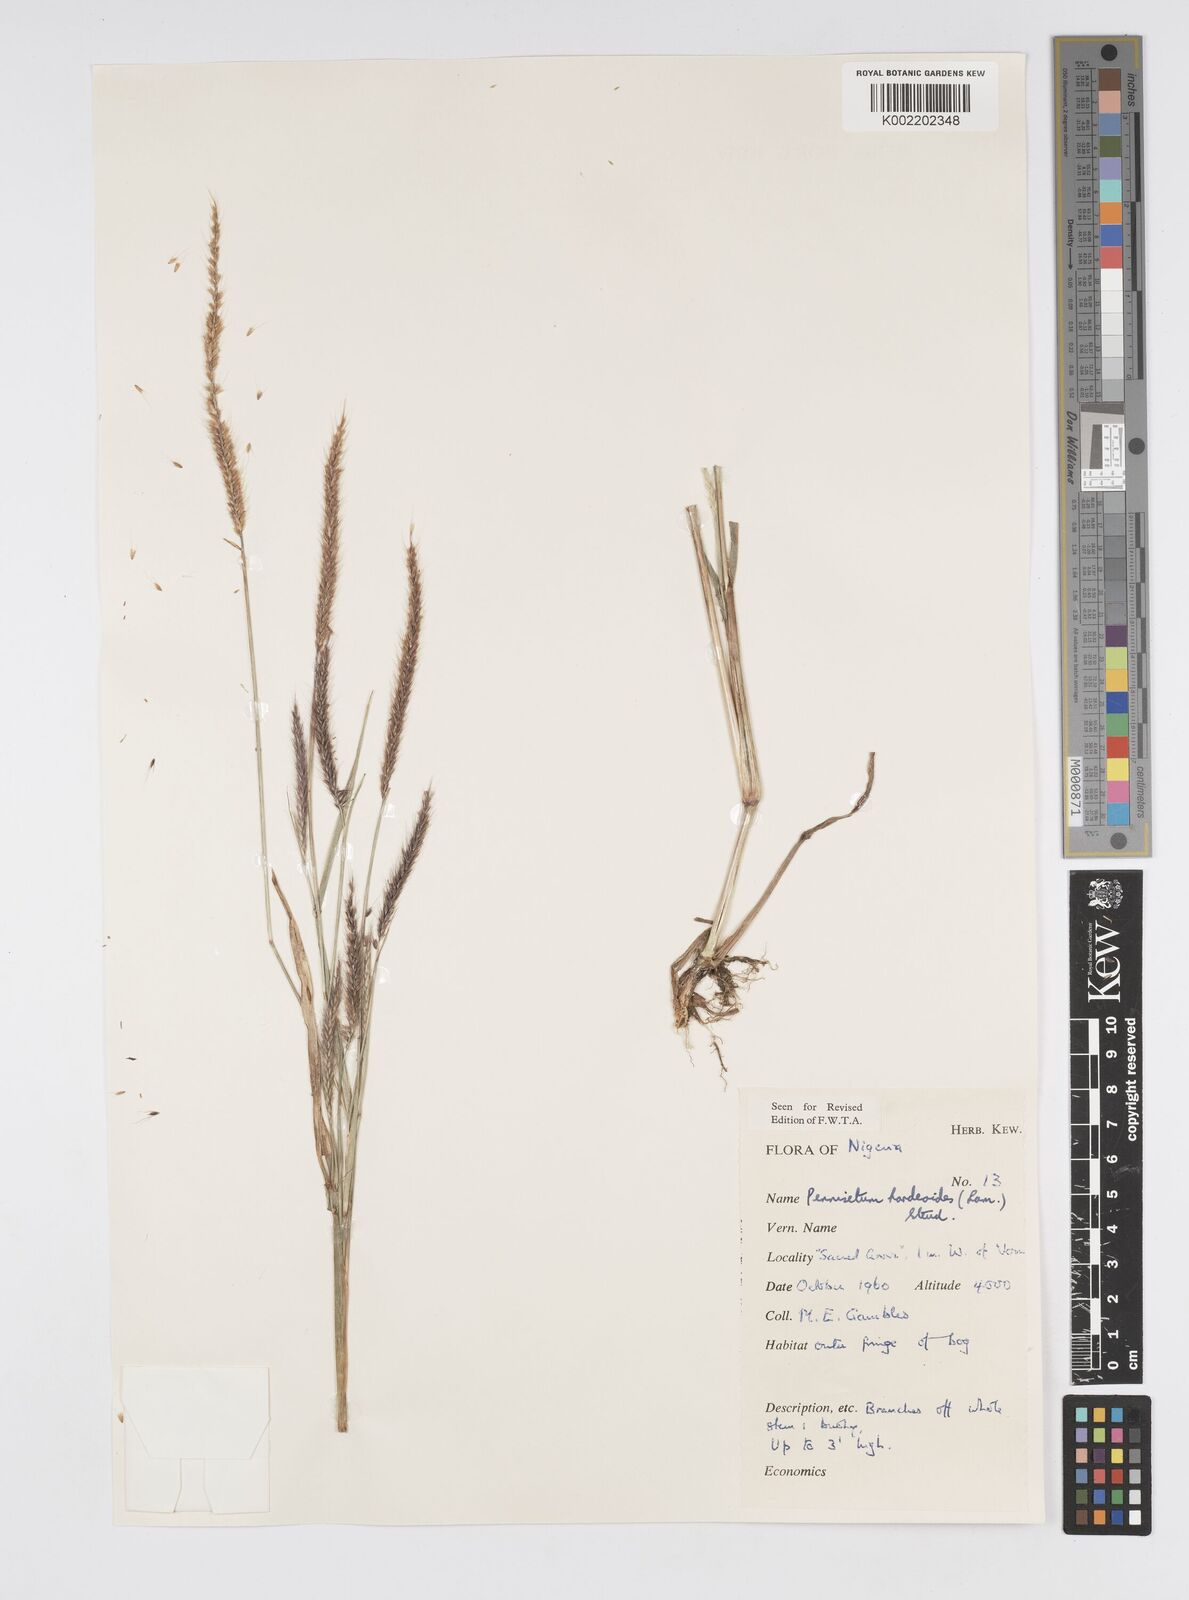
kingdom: Plantae
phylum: Tracheophyta
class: Liliopsida
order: Poales
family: Poaceae
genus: Cenchrus
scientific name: Cenchrus Pennisetum spec
